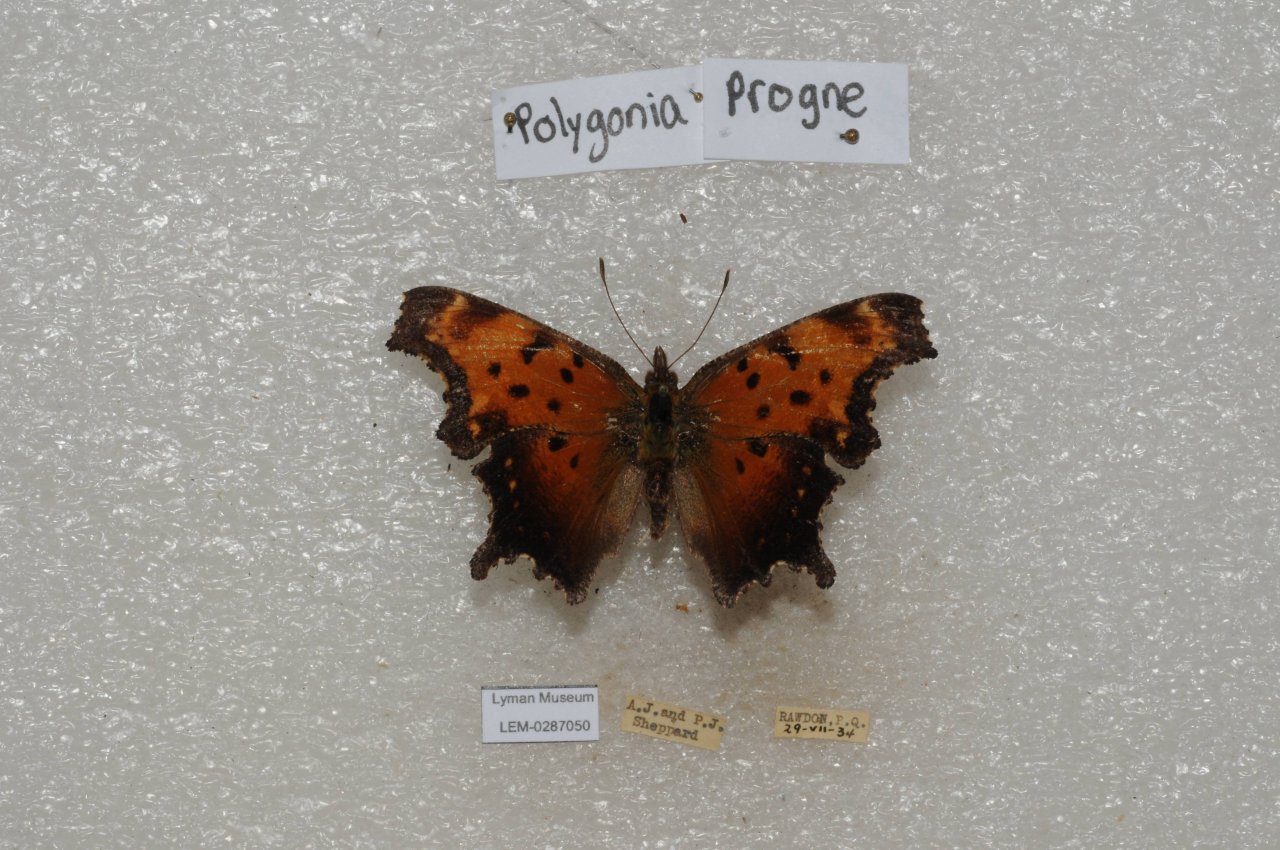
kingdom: Animalia
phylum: Arthropoda
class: Insecta
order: Lepidoptera
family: Nymphalidae
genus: Polygonia
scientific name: Polygonia progne
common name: Gray Comma
